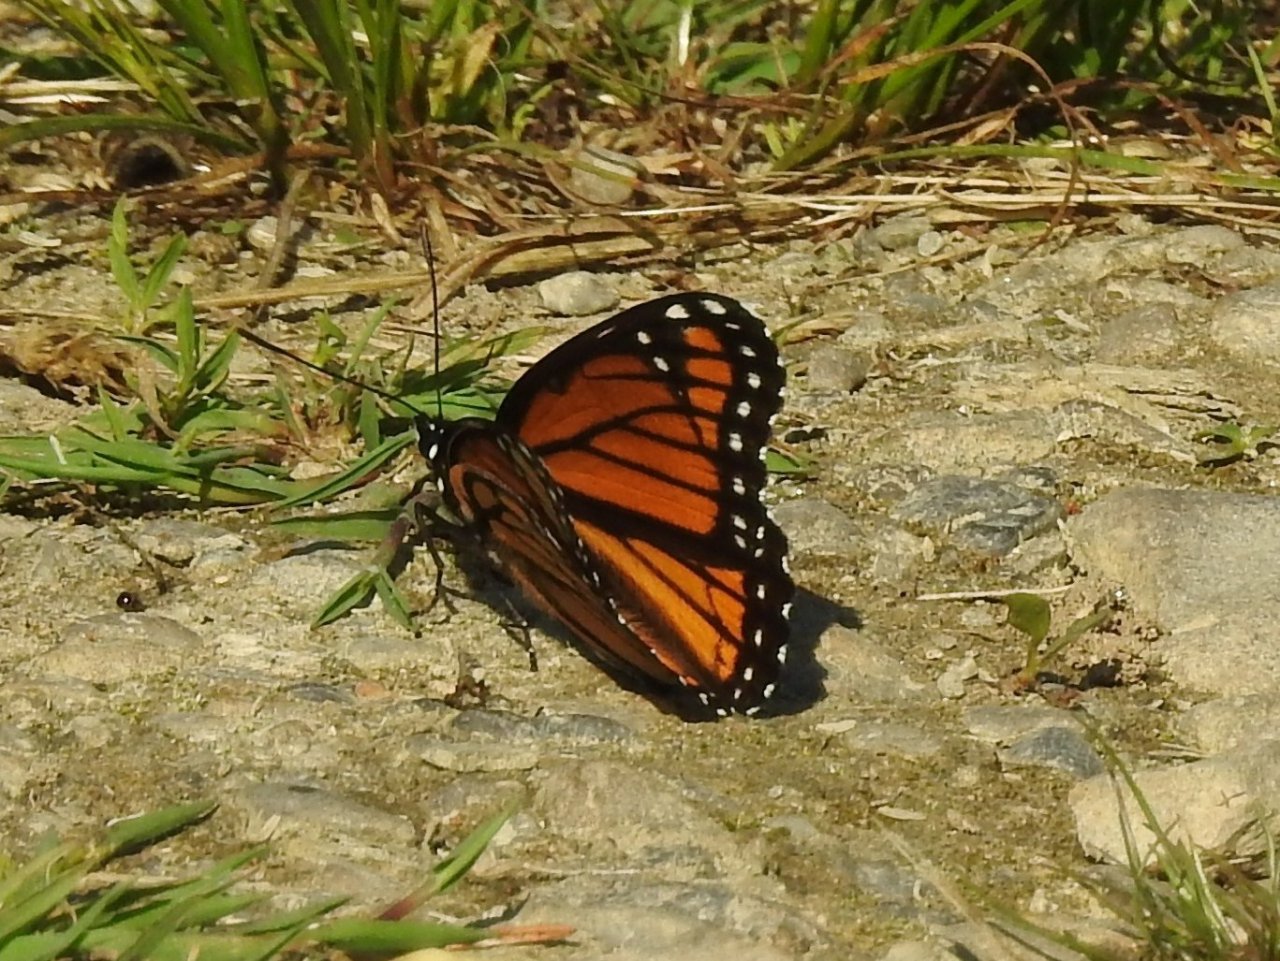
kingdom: Animalia
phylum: Arthropoda
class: Insecta
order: Lepidoptera
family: Nymphalidae
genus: Limenitis
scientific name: Limenitis archippus
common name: Viceroy
